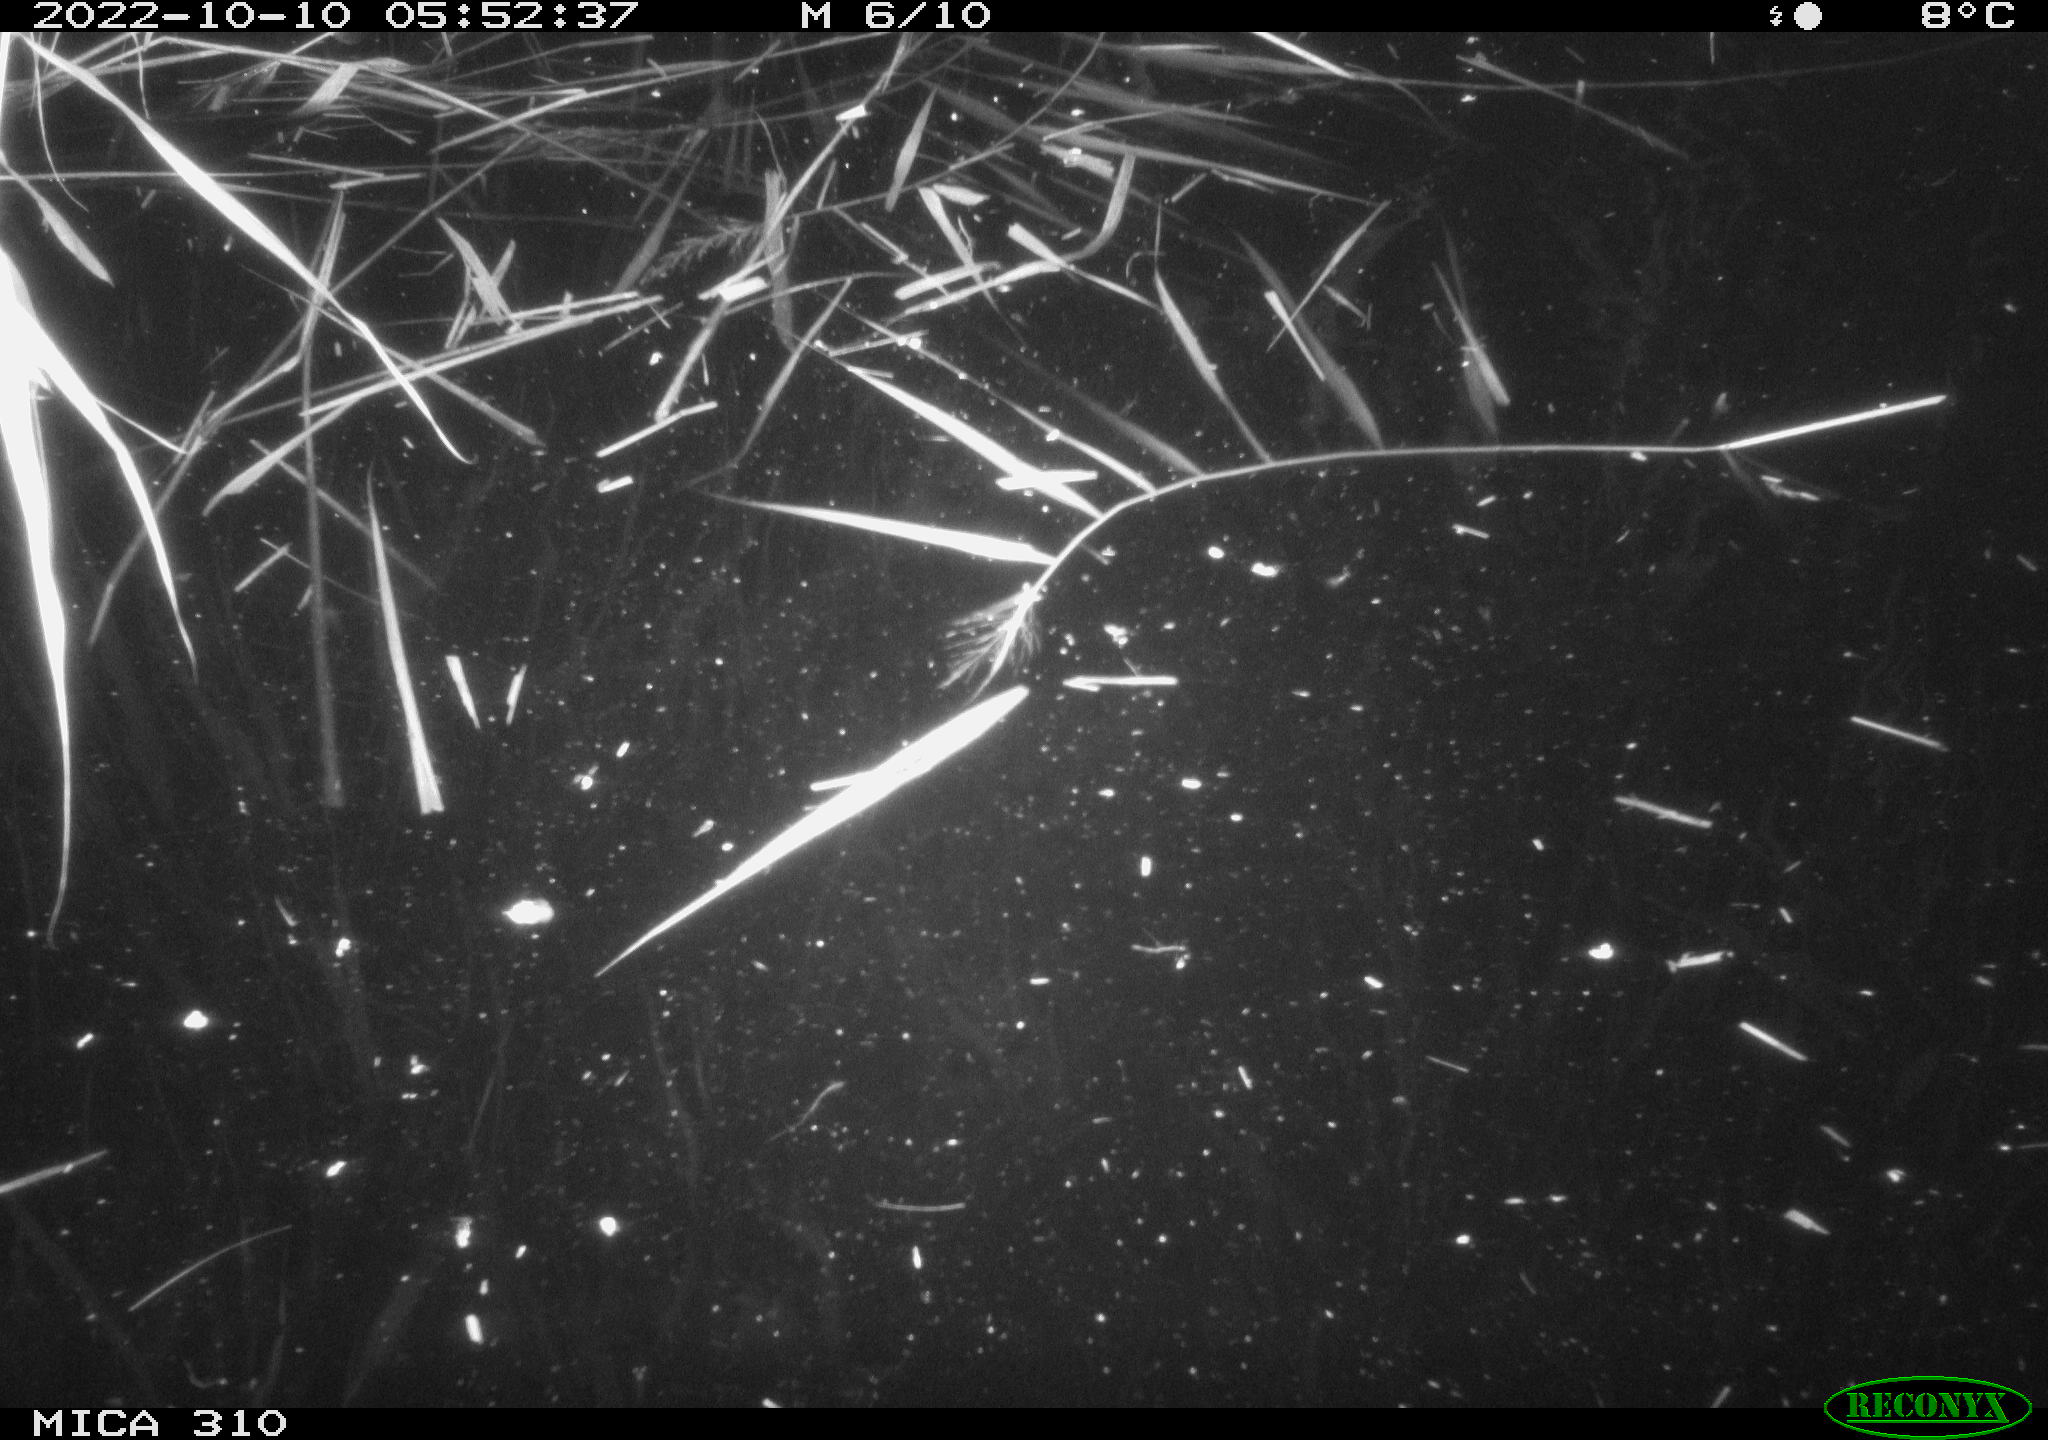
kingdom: Animalia
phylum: Chordata
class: Mammalia
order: Rodentia
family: Muridae
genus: Rattus
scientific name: Rattus norvegicus
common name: Brown rat
